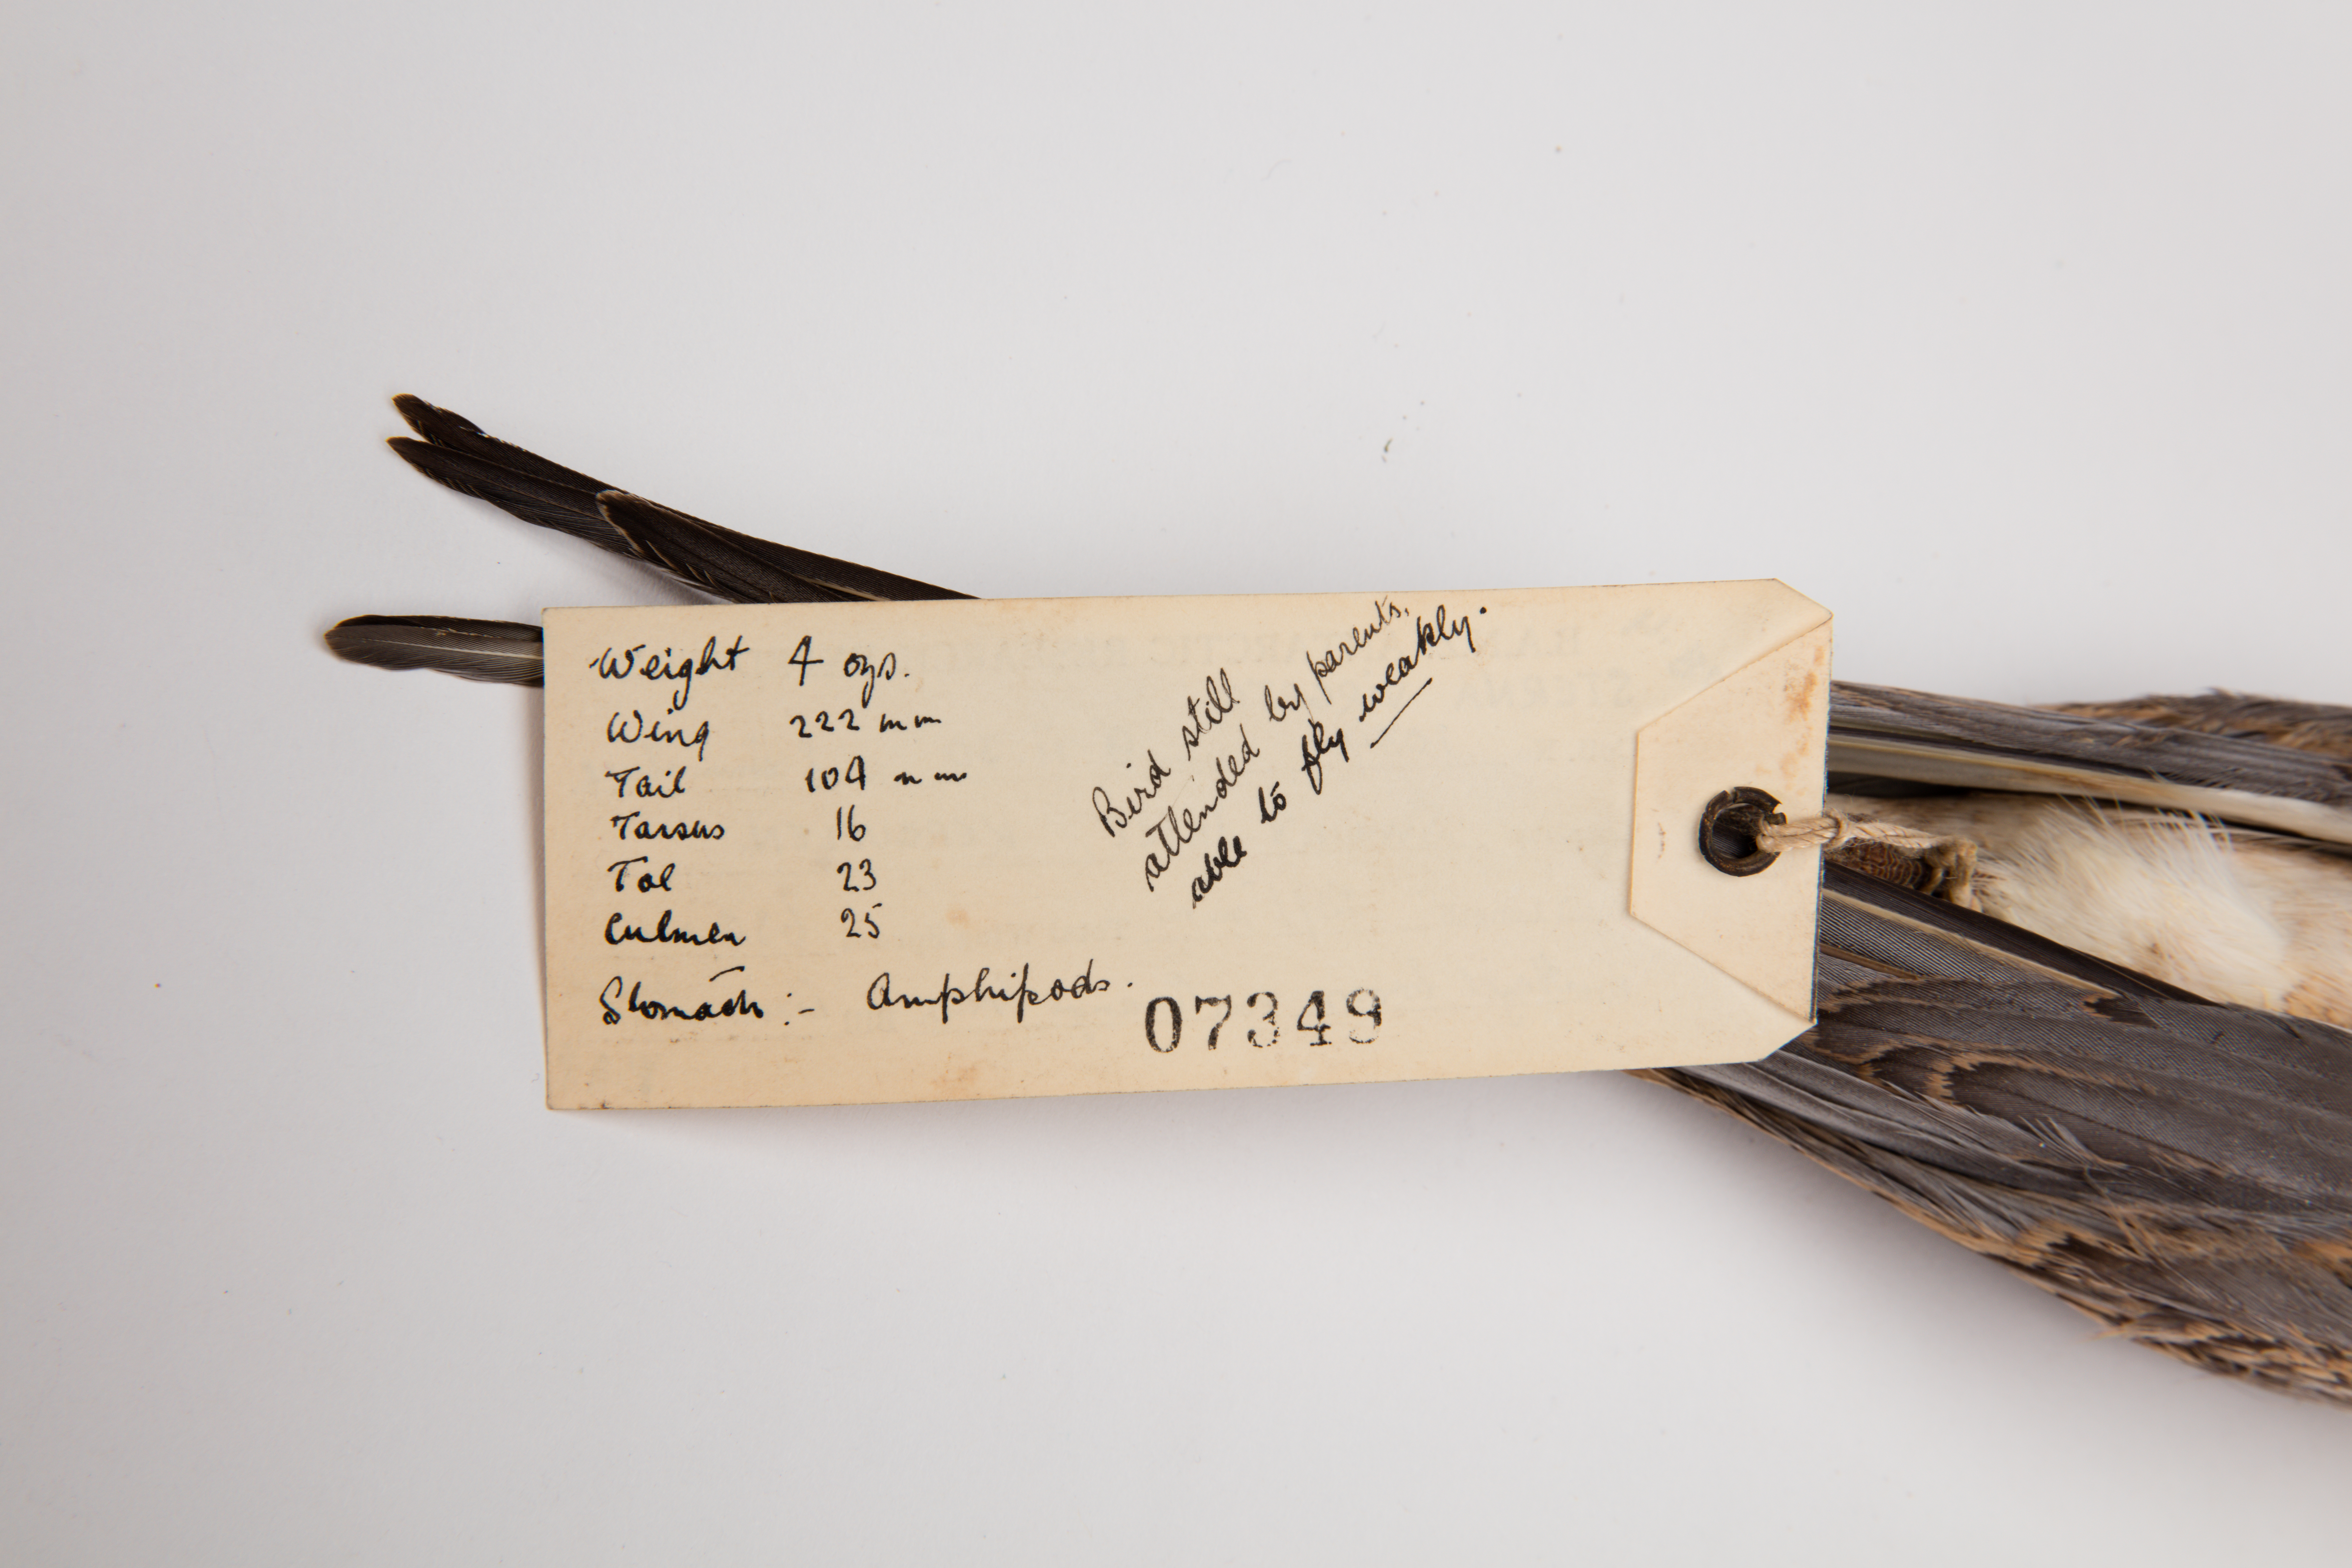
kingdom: Animalia
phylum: Chordata
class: Aves
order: Charadriiformes
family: Laridae
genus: Sterna
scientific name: Sterna virgata
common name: Kerguelen tern
